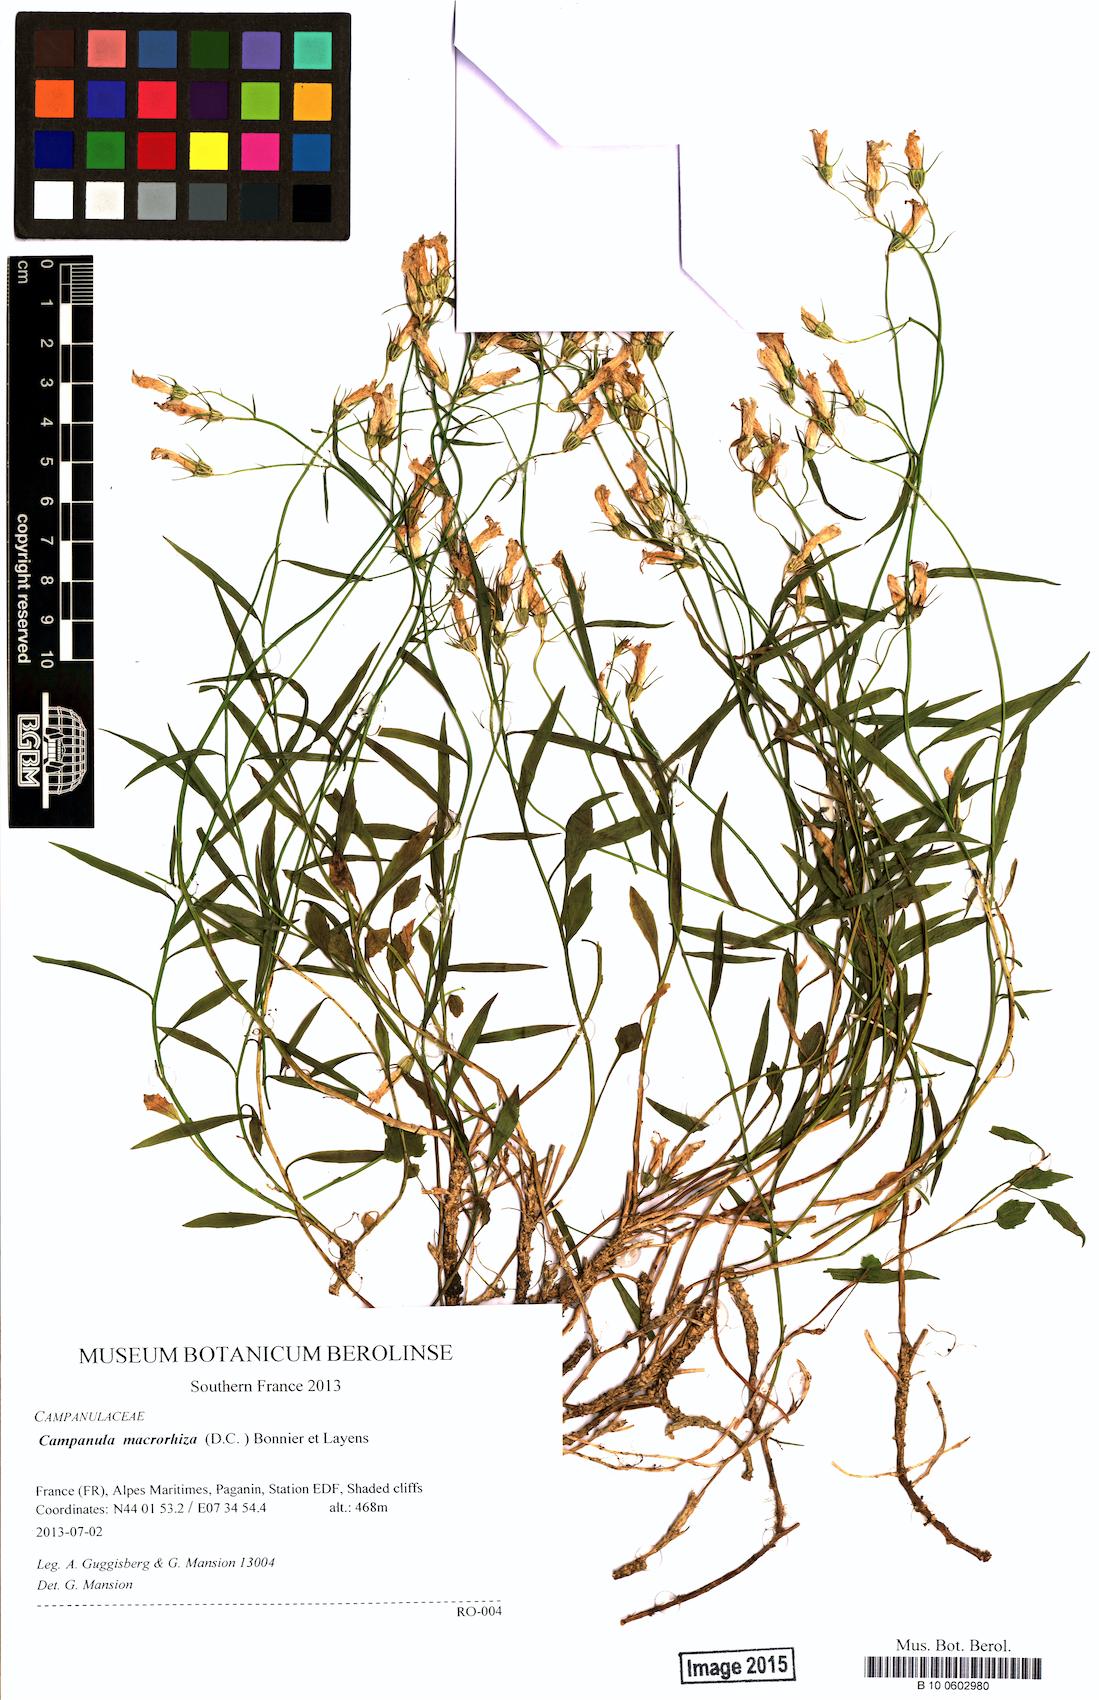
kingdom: Plantae
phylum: Tracheophyta
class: Magnoliopsida
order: Asterales
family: Campanulaceae
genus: Campanula
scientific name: Campanula macrorhiza
